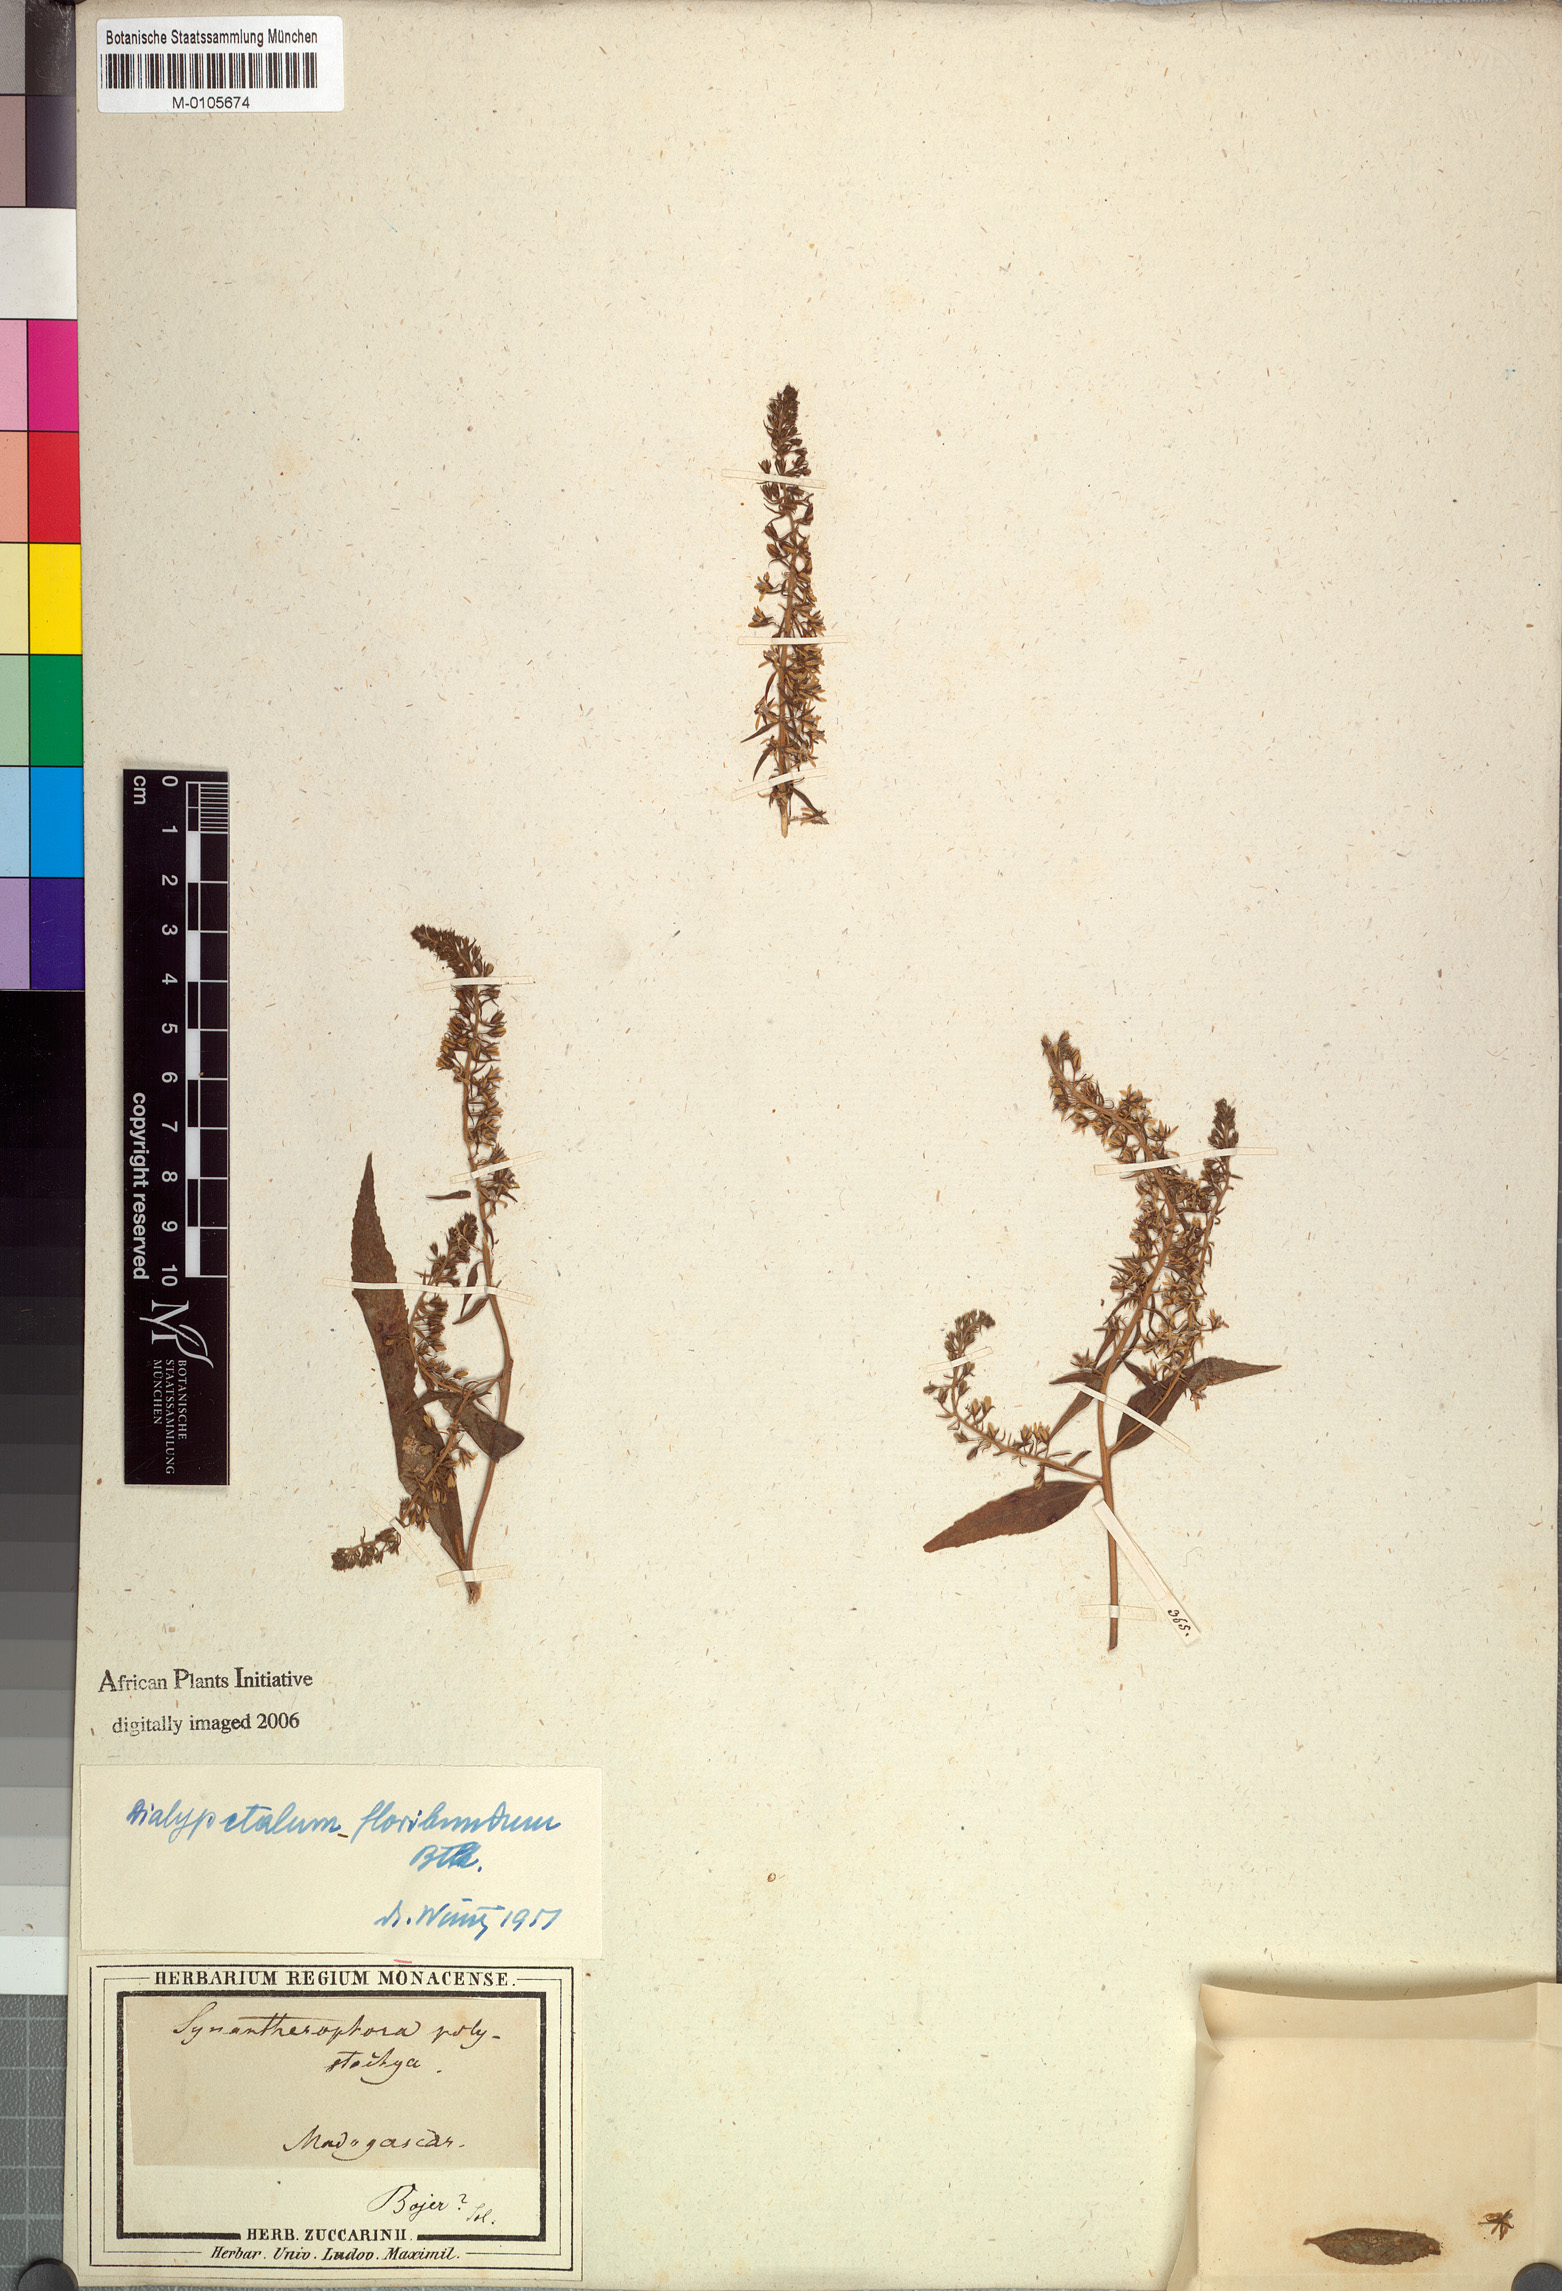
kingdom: Plantae
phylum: Tracheophyta
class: Magnoliopsida
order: Asterales
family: Campanulaceae
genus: Dialypetalum
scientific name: Dialypetalum floribundum
